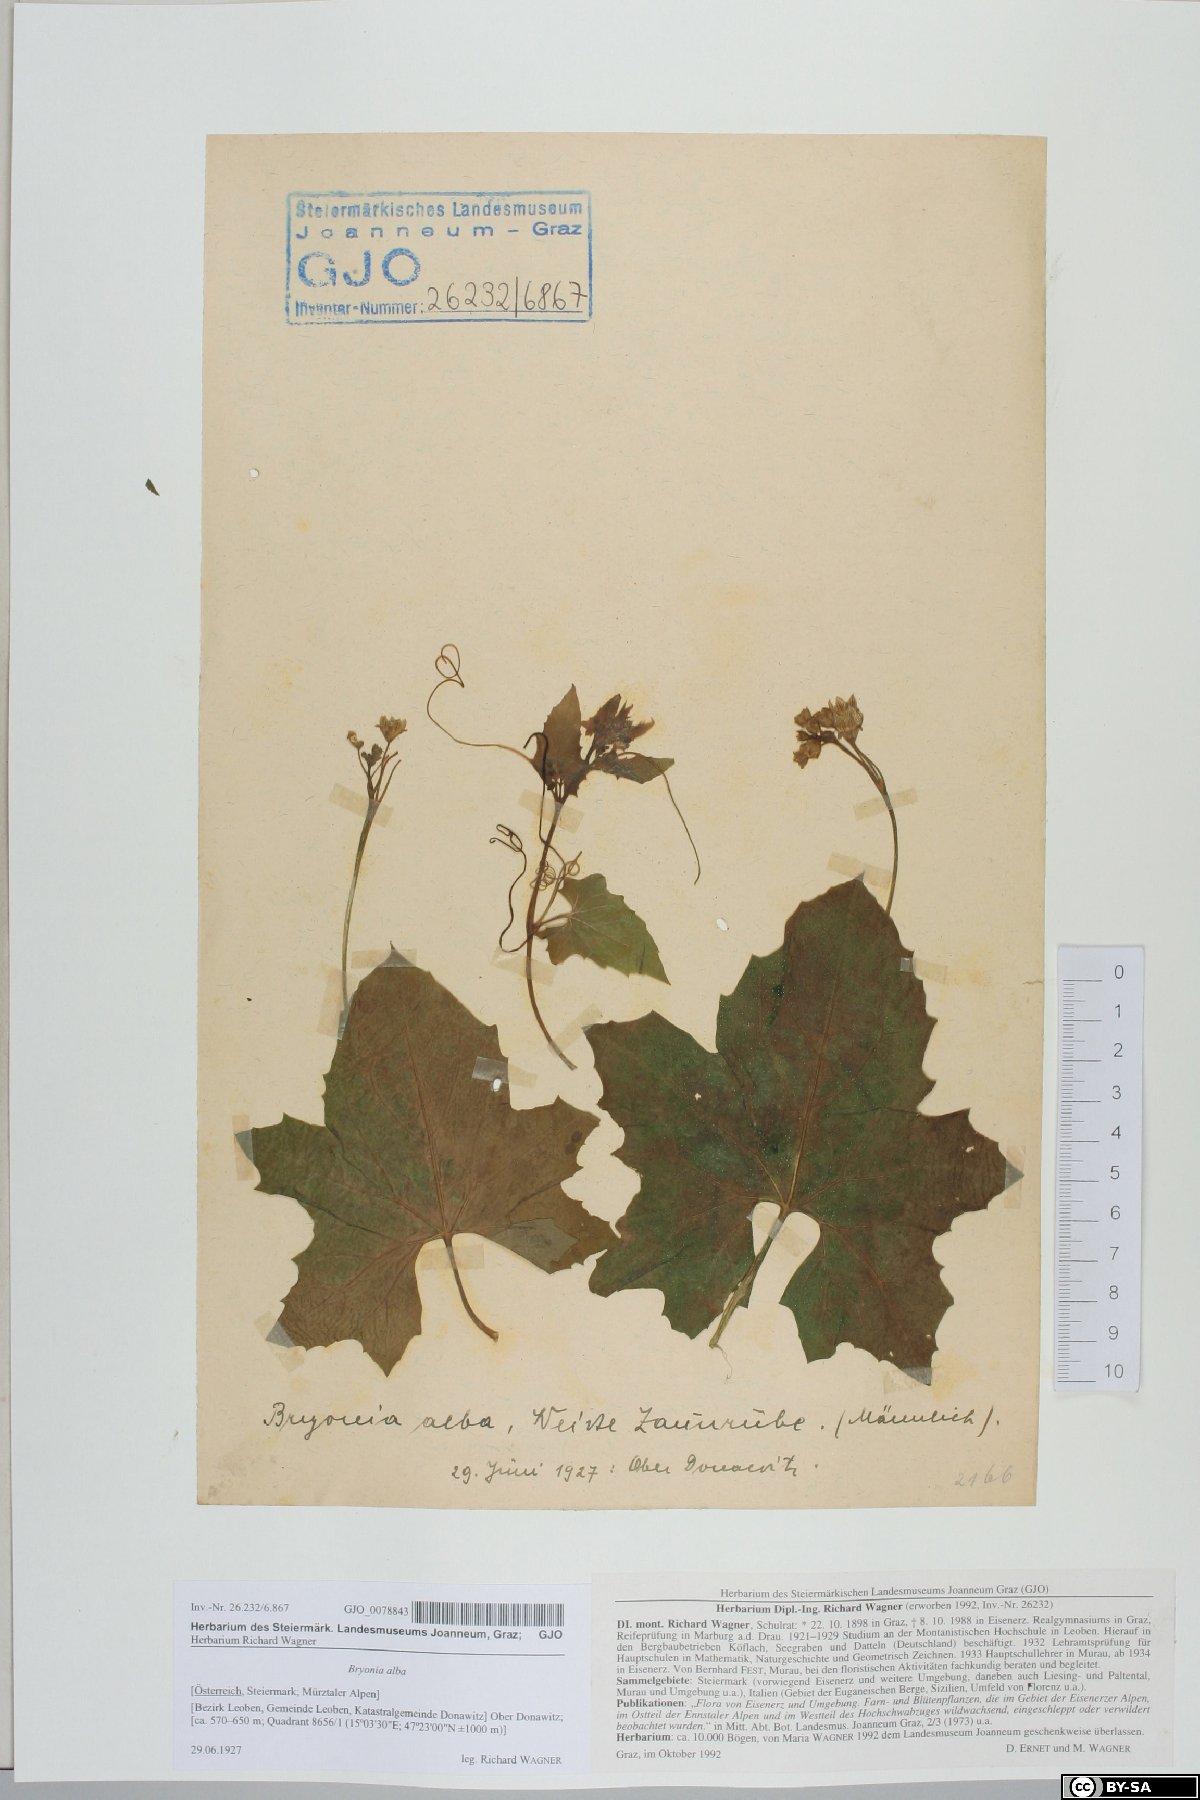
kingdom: Plantae
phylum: Tracheophyta
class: Magnoliopsida
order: Cucurbitales
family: Cucurbitaceae
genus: Bryonia
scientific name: Bryonia alba
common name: White bryony
